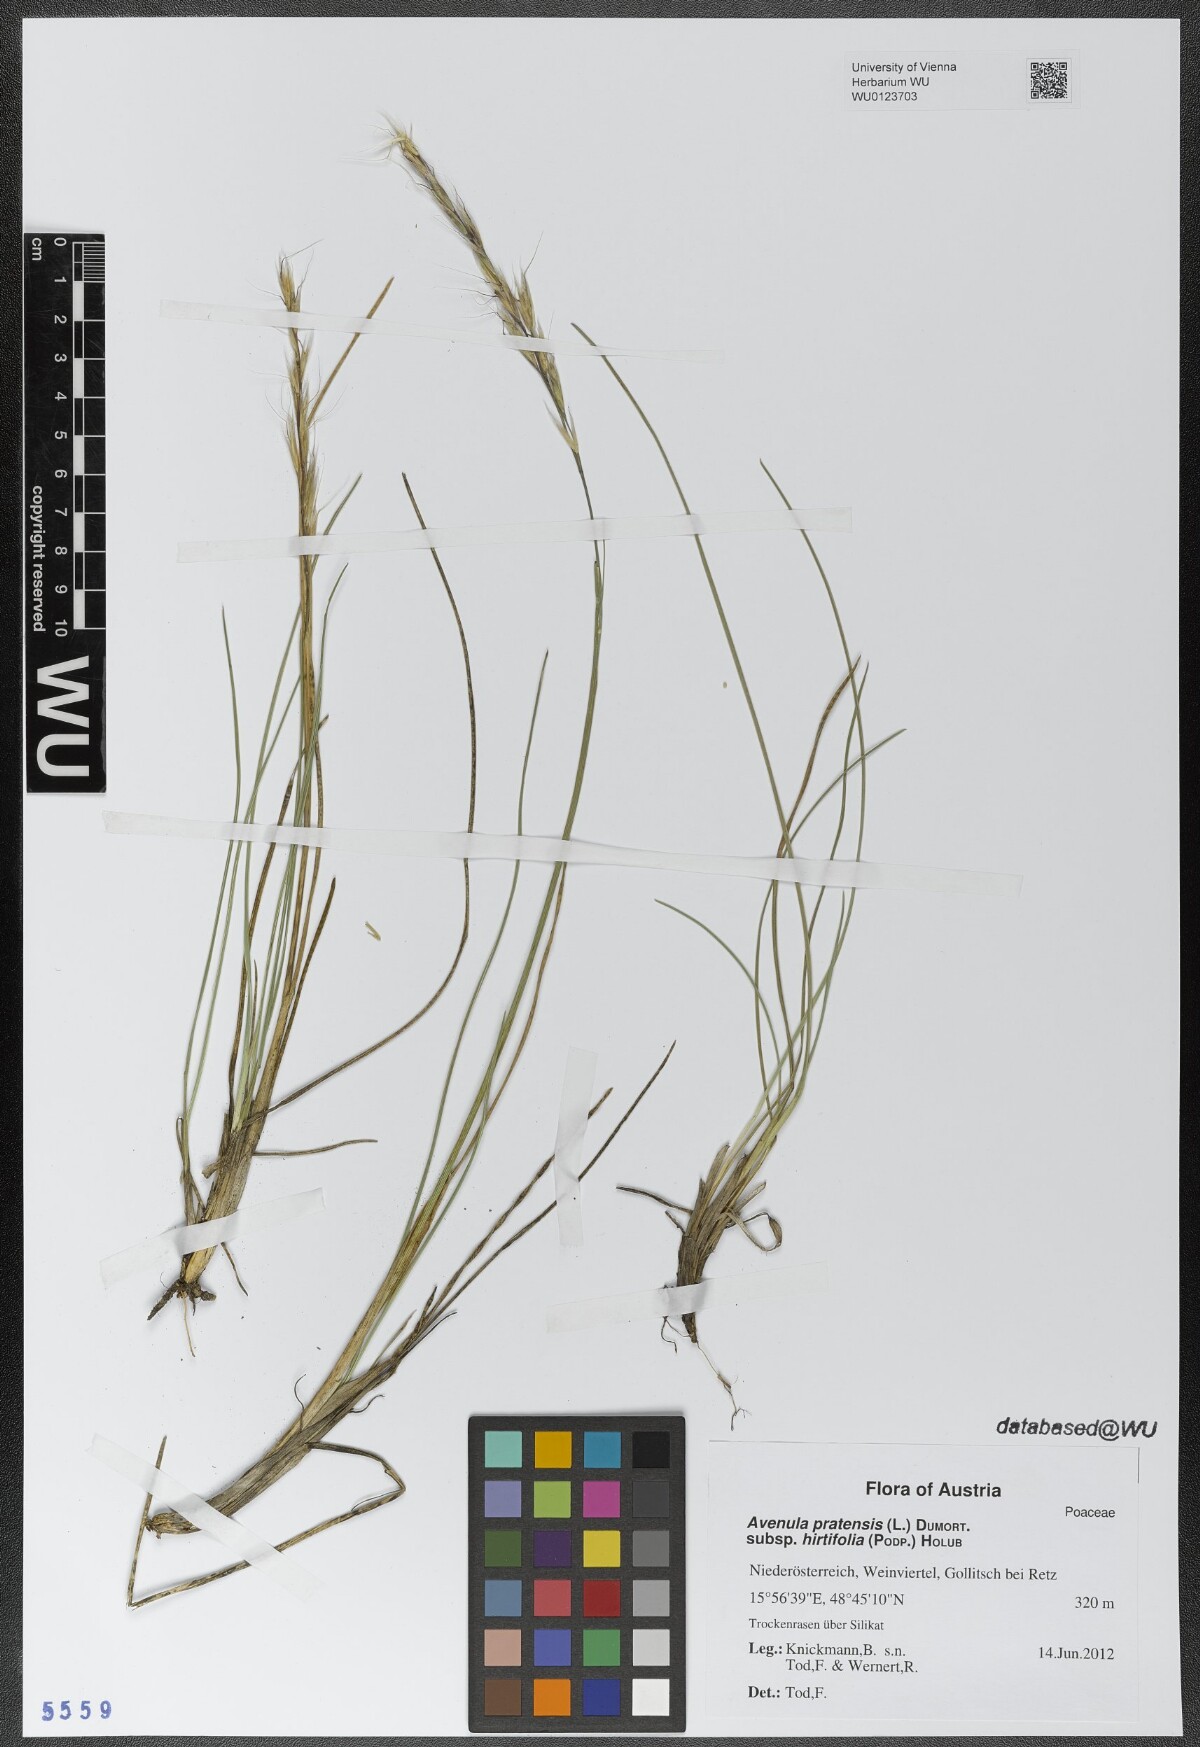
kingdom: Plantae
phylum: Tracheophyta
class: Liliopsida
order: Poales
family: Poaceae
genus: Helictochloa
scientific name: Helictochloa pratensis
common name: Meadow oat grass
